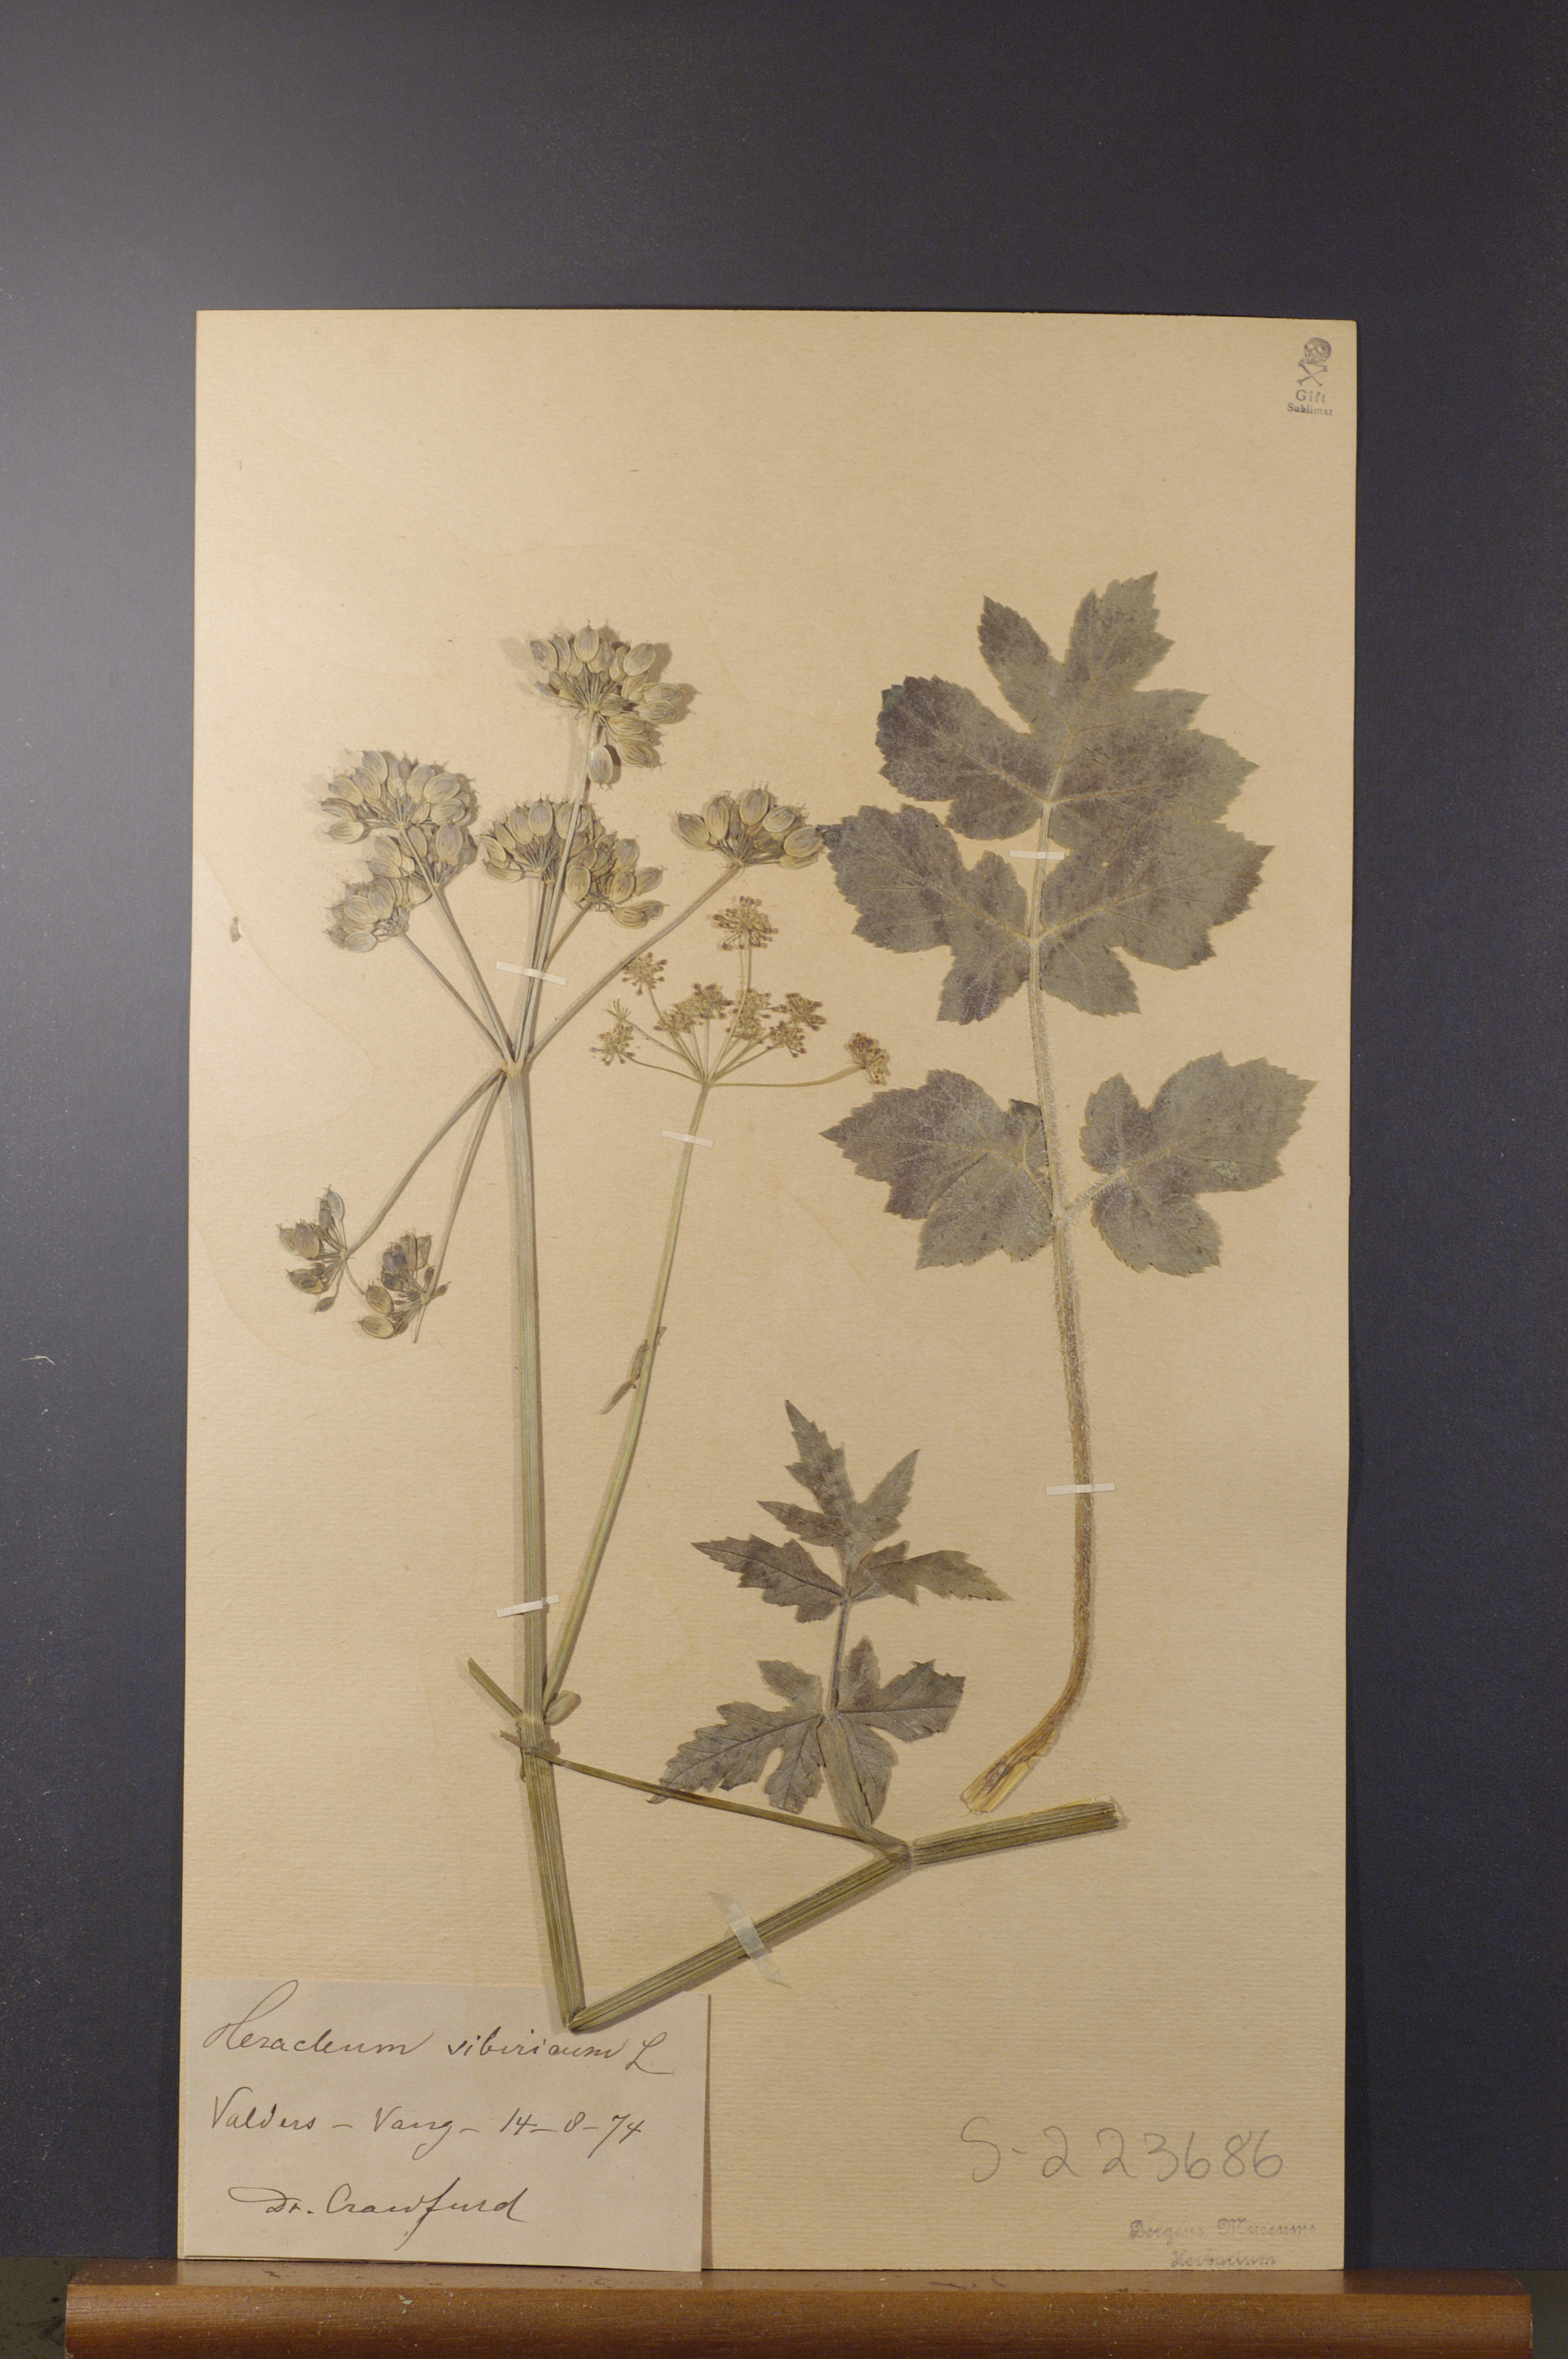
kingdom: Plantae
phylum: Tracheophyta
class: Magnoliopsida
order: Apiales
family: Apiaceae
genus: Heracleum
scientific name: Heracleum sphondylium
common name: Hogweed
